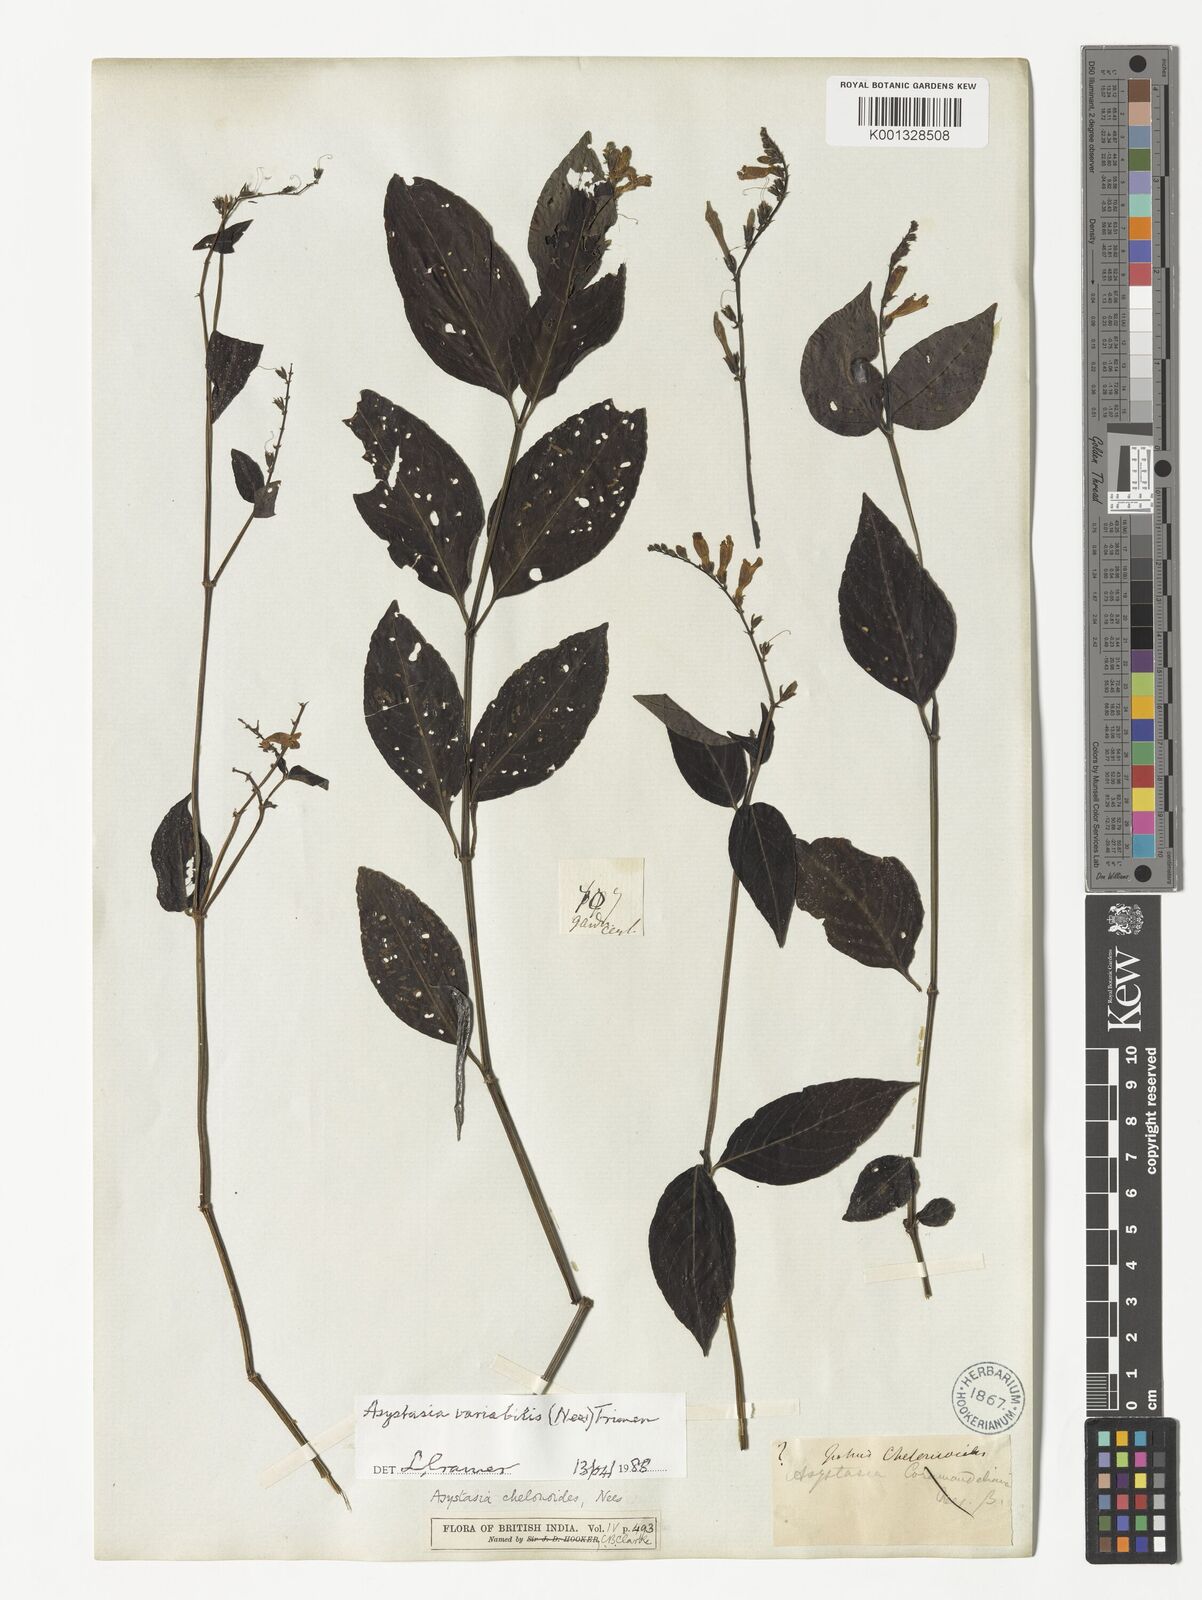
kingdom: Plantae
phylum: Tracheophyta
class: Magnoliopsida
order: Lamiales
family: Acanthaceae
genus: Asystasia
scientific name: Asystasia nemorum
